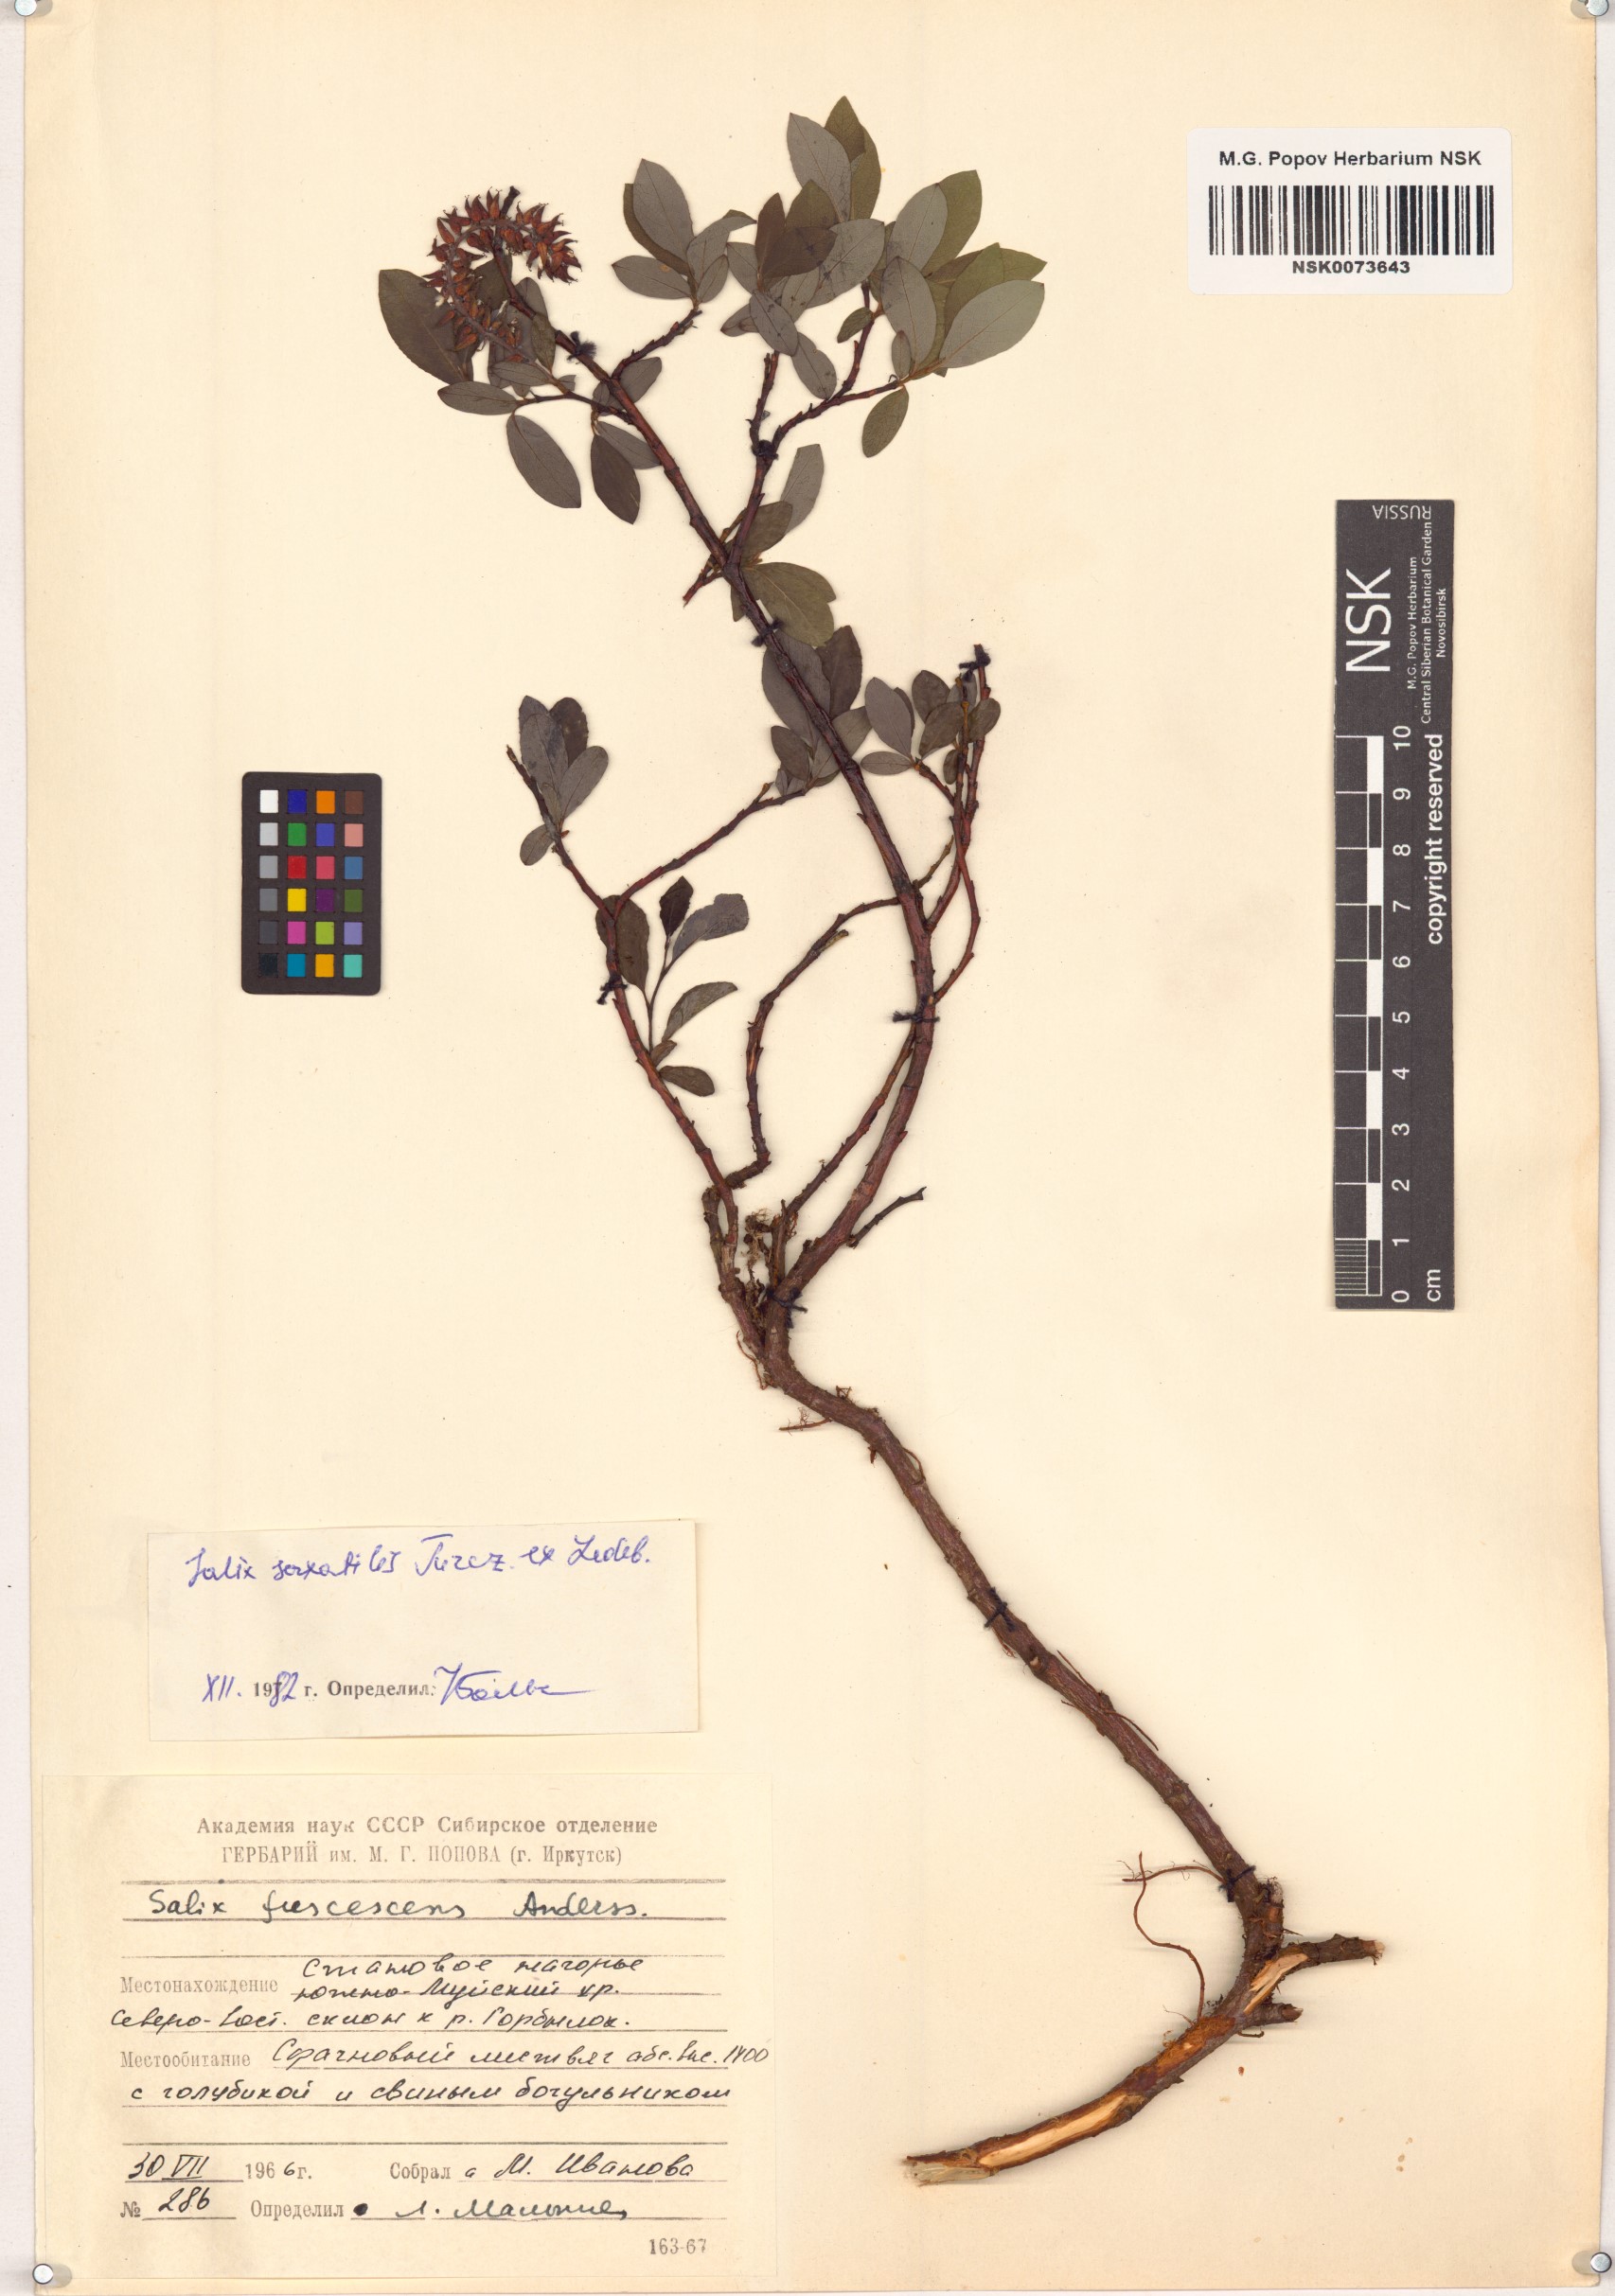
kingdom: Plantae
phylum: Tracheophyta
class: Magnoliopsida
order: Malpighiales
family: Salicaceae
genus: Salix
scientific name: Salix saxatilis
